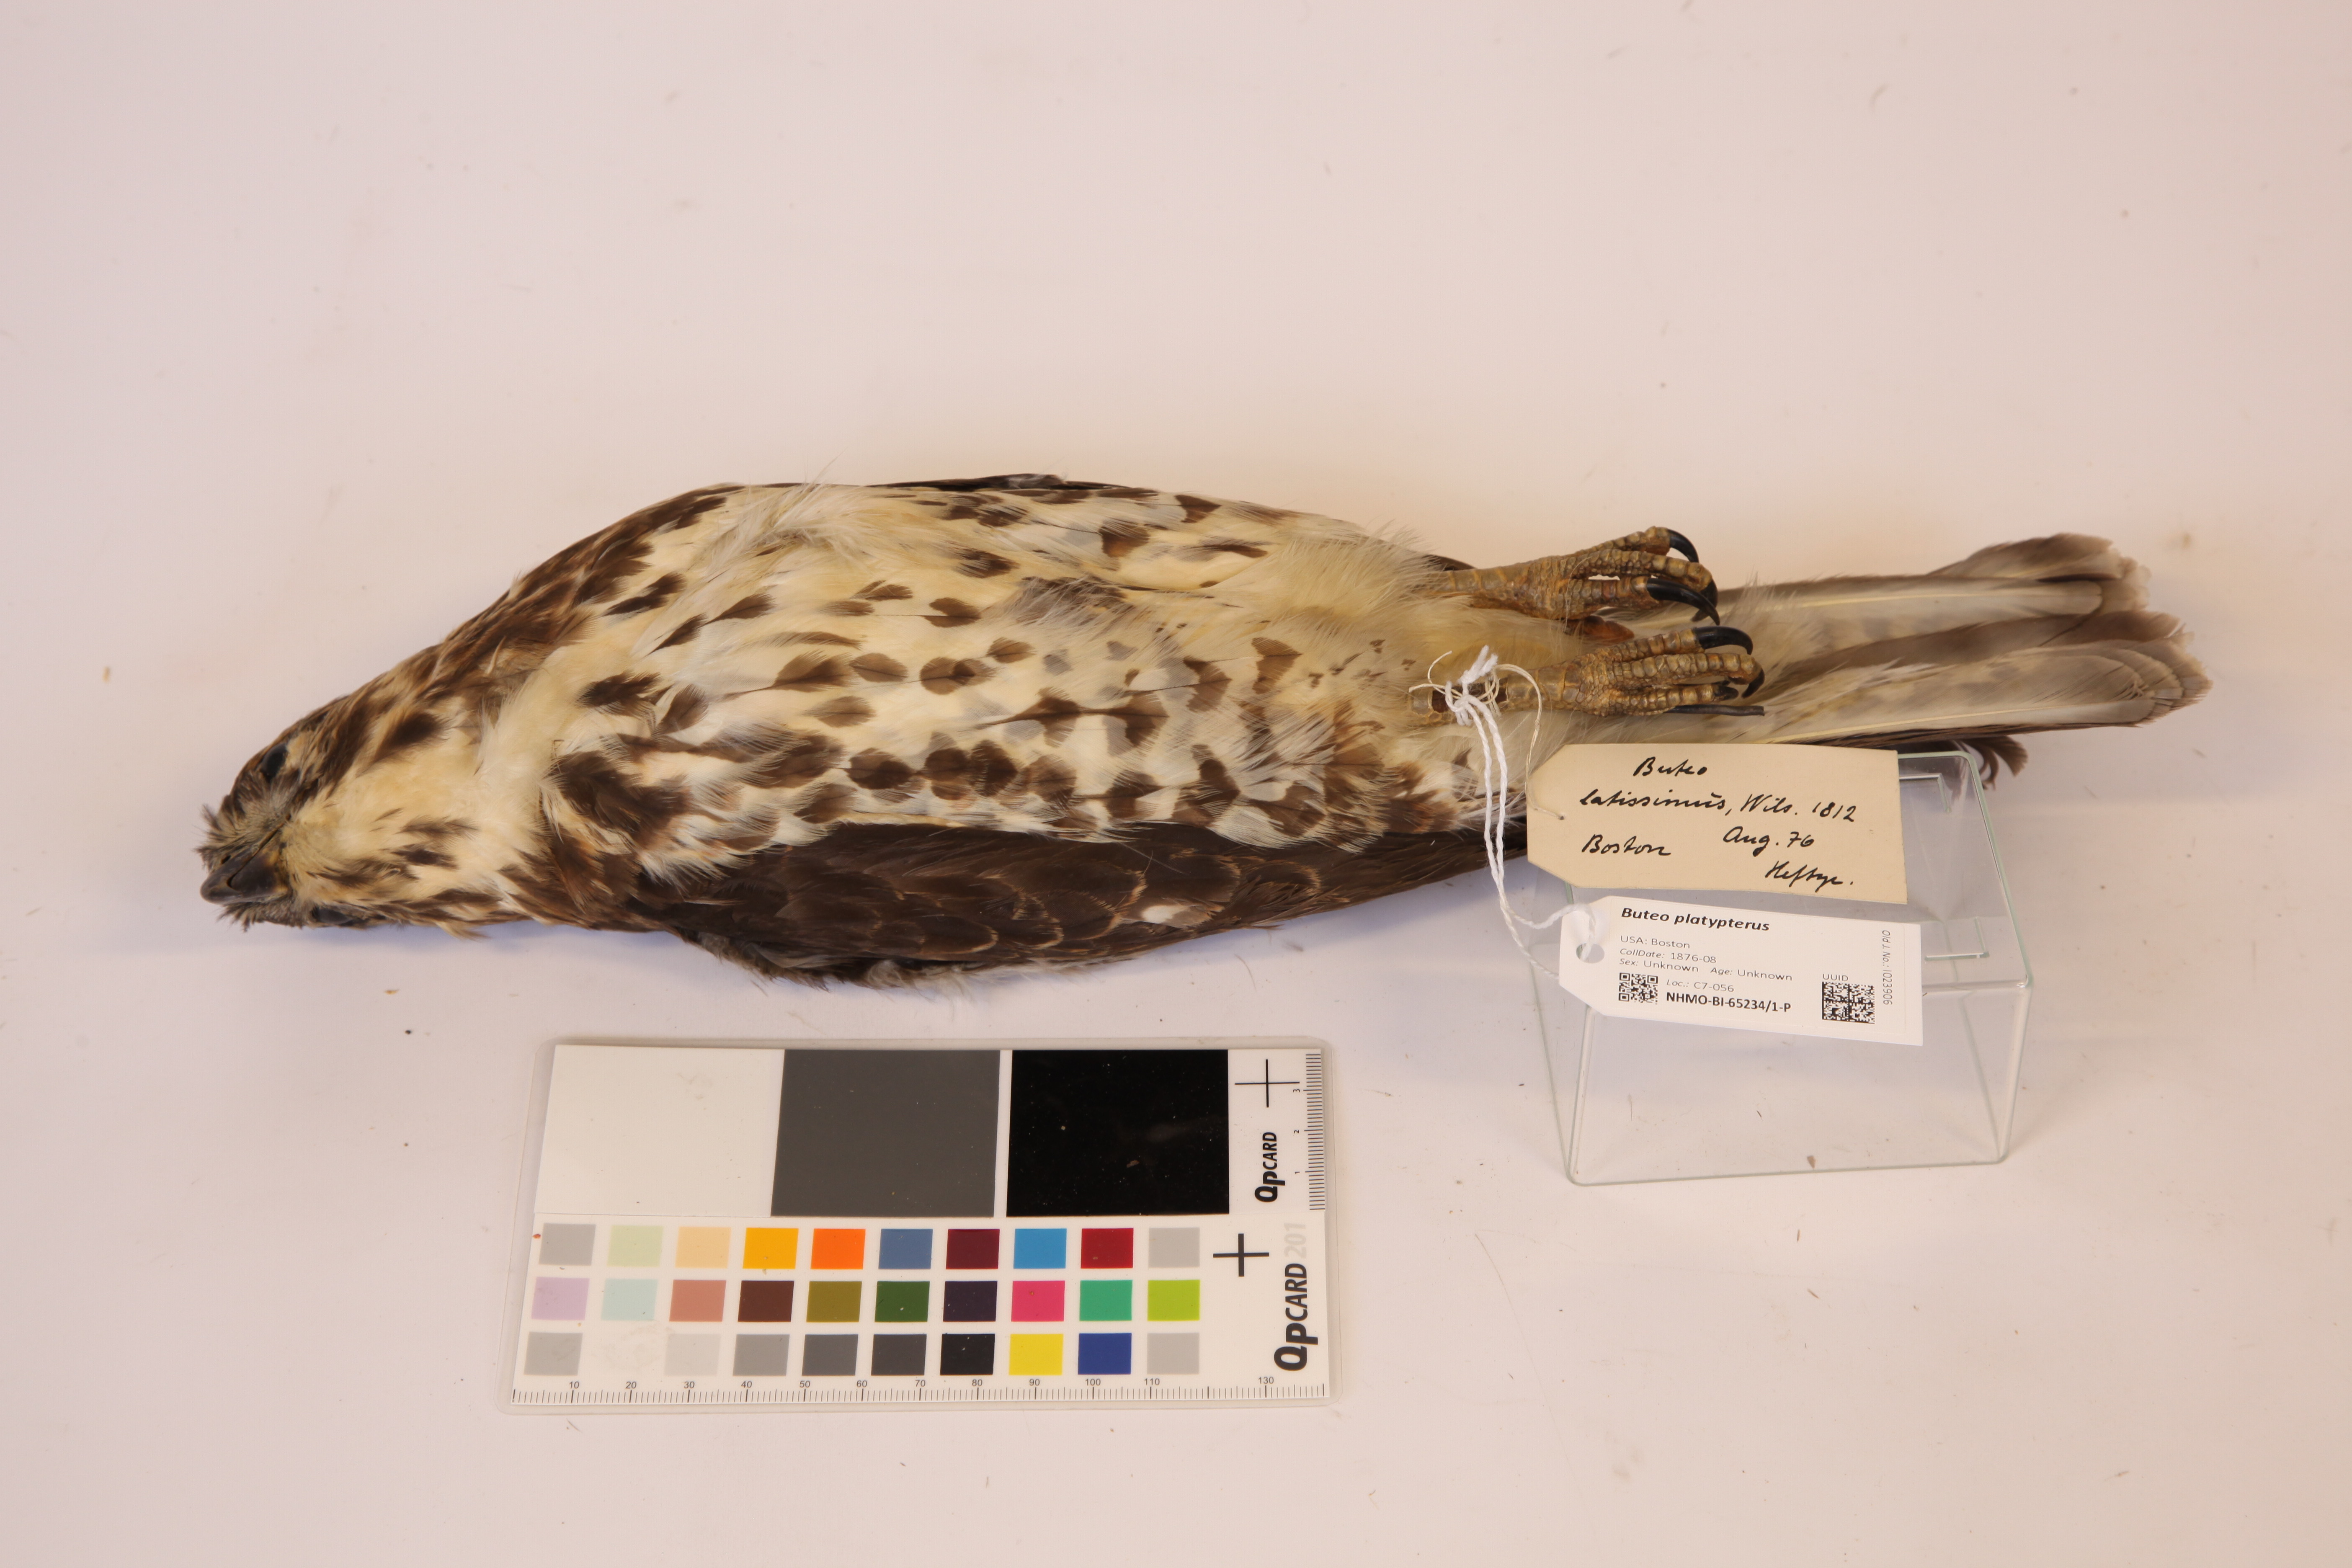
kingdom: Animalia
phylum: Chordata
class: Aves
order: Accipitriformes
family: Accipitridae
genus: Buteo
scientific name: Buteo platypterus
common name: Broad-winged hawk
